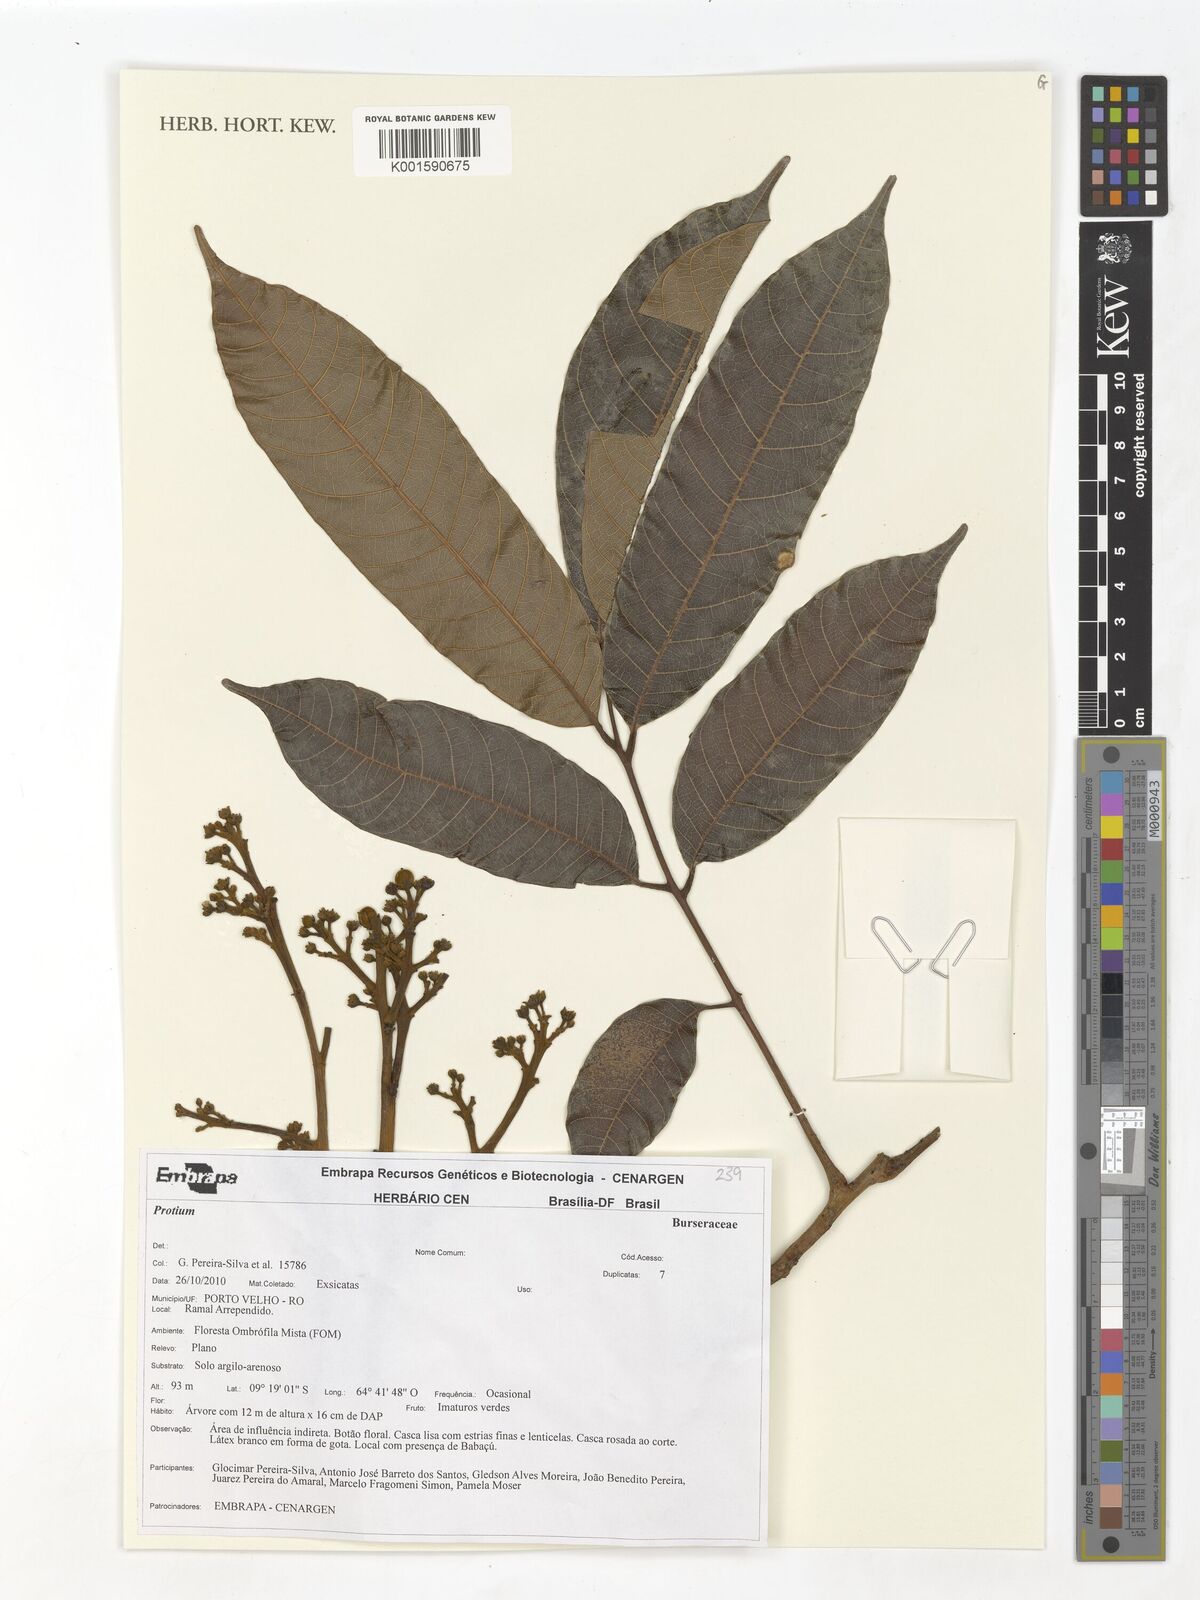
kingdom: Plantae
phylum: Tracheophyta
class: Magnoliopsida
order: Sapindales
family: Burseraceae
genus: Protium
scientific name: Protium
